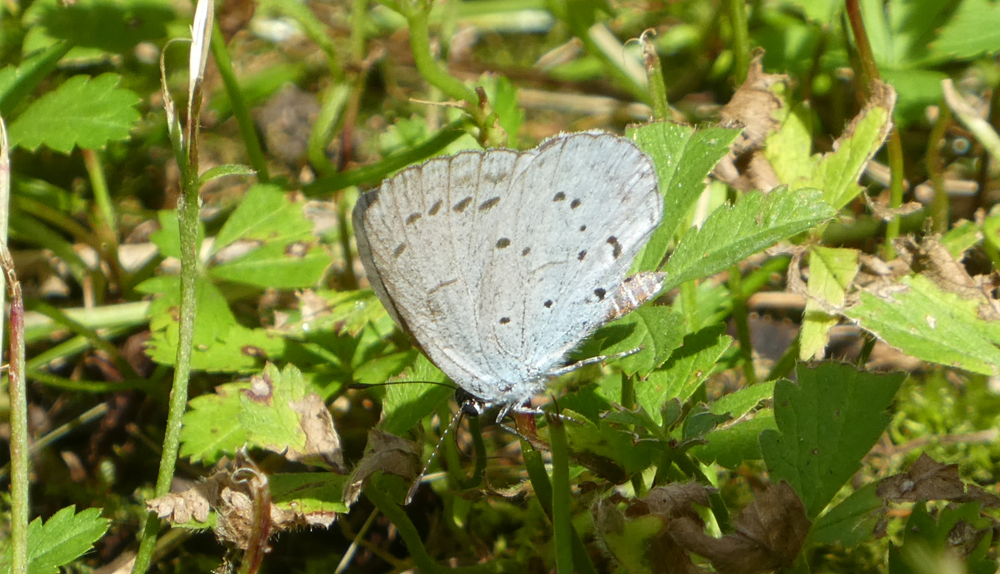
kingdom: Animalia
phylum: Arthropoda
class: Insecta
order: Lepidoptera
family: Lycaenidae
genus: Celastrina
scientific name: Celastrina argiolus
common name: Holly blue
